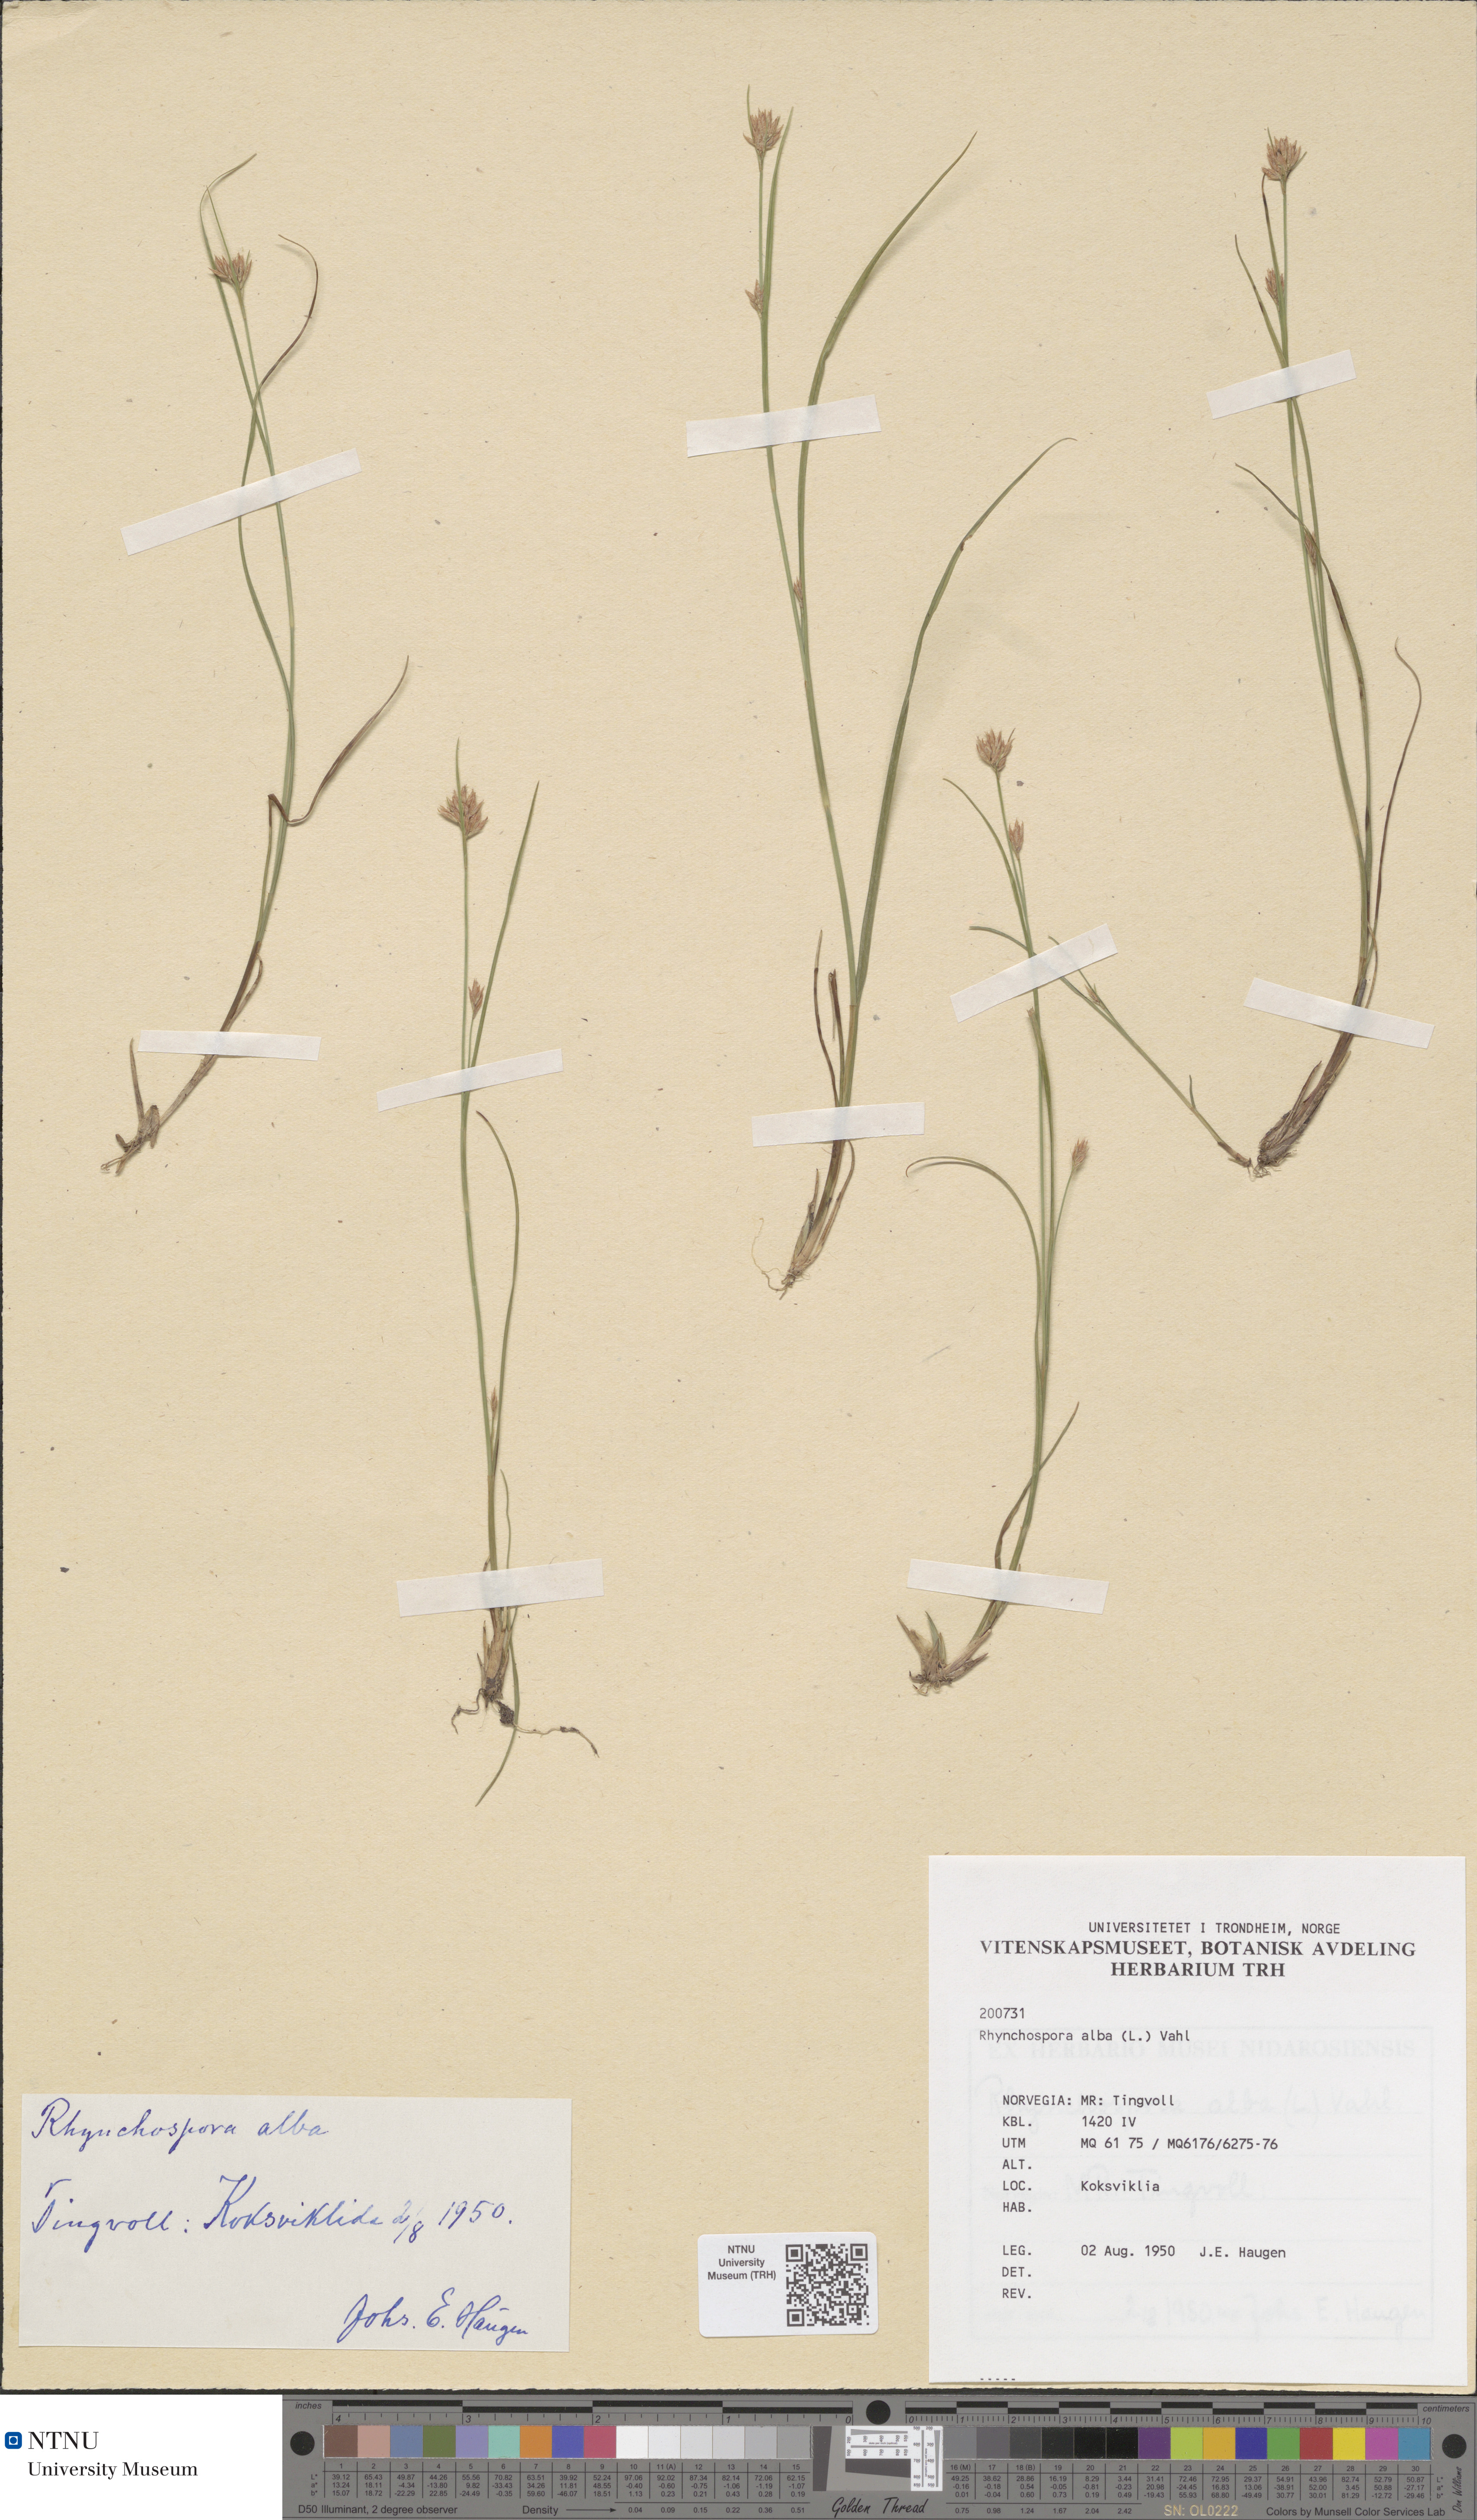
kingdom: Plantae
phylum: Tracheophyta
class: Liliopsida
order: Poales
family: Cyperaceae
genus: Rhynchospora
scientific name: Rhynchospora alba
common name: White beak-sedge
